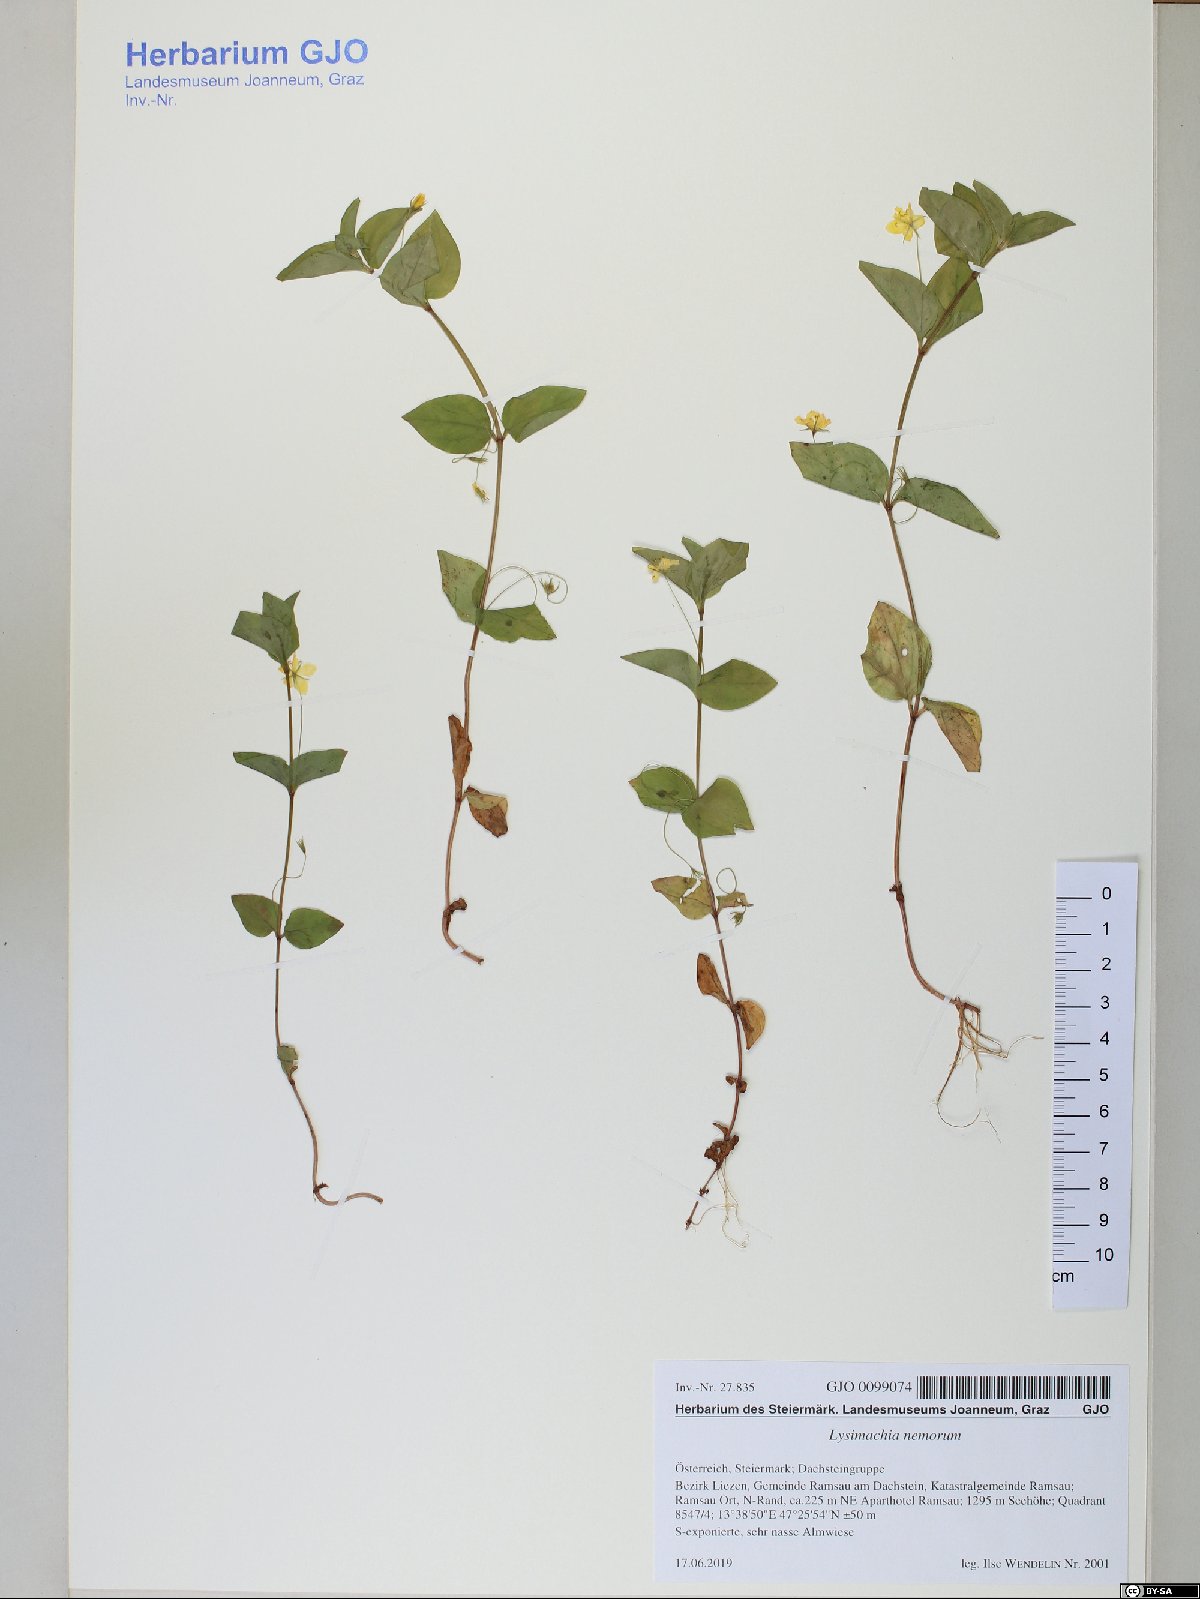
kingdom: Plantae
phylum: Tracheophyta
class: Magnoliopsida
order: Ericales
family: Primulaceae
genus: Lysimachia
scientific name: Lysimachia nemorum
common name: Yellow pimpernel
